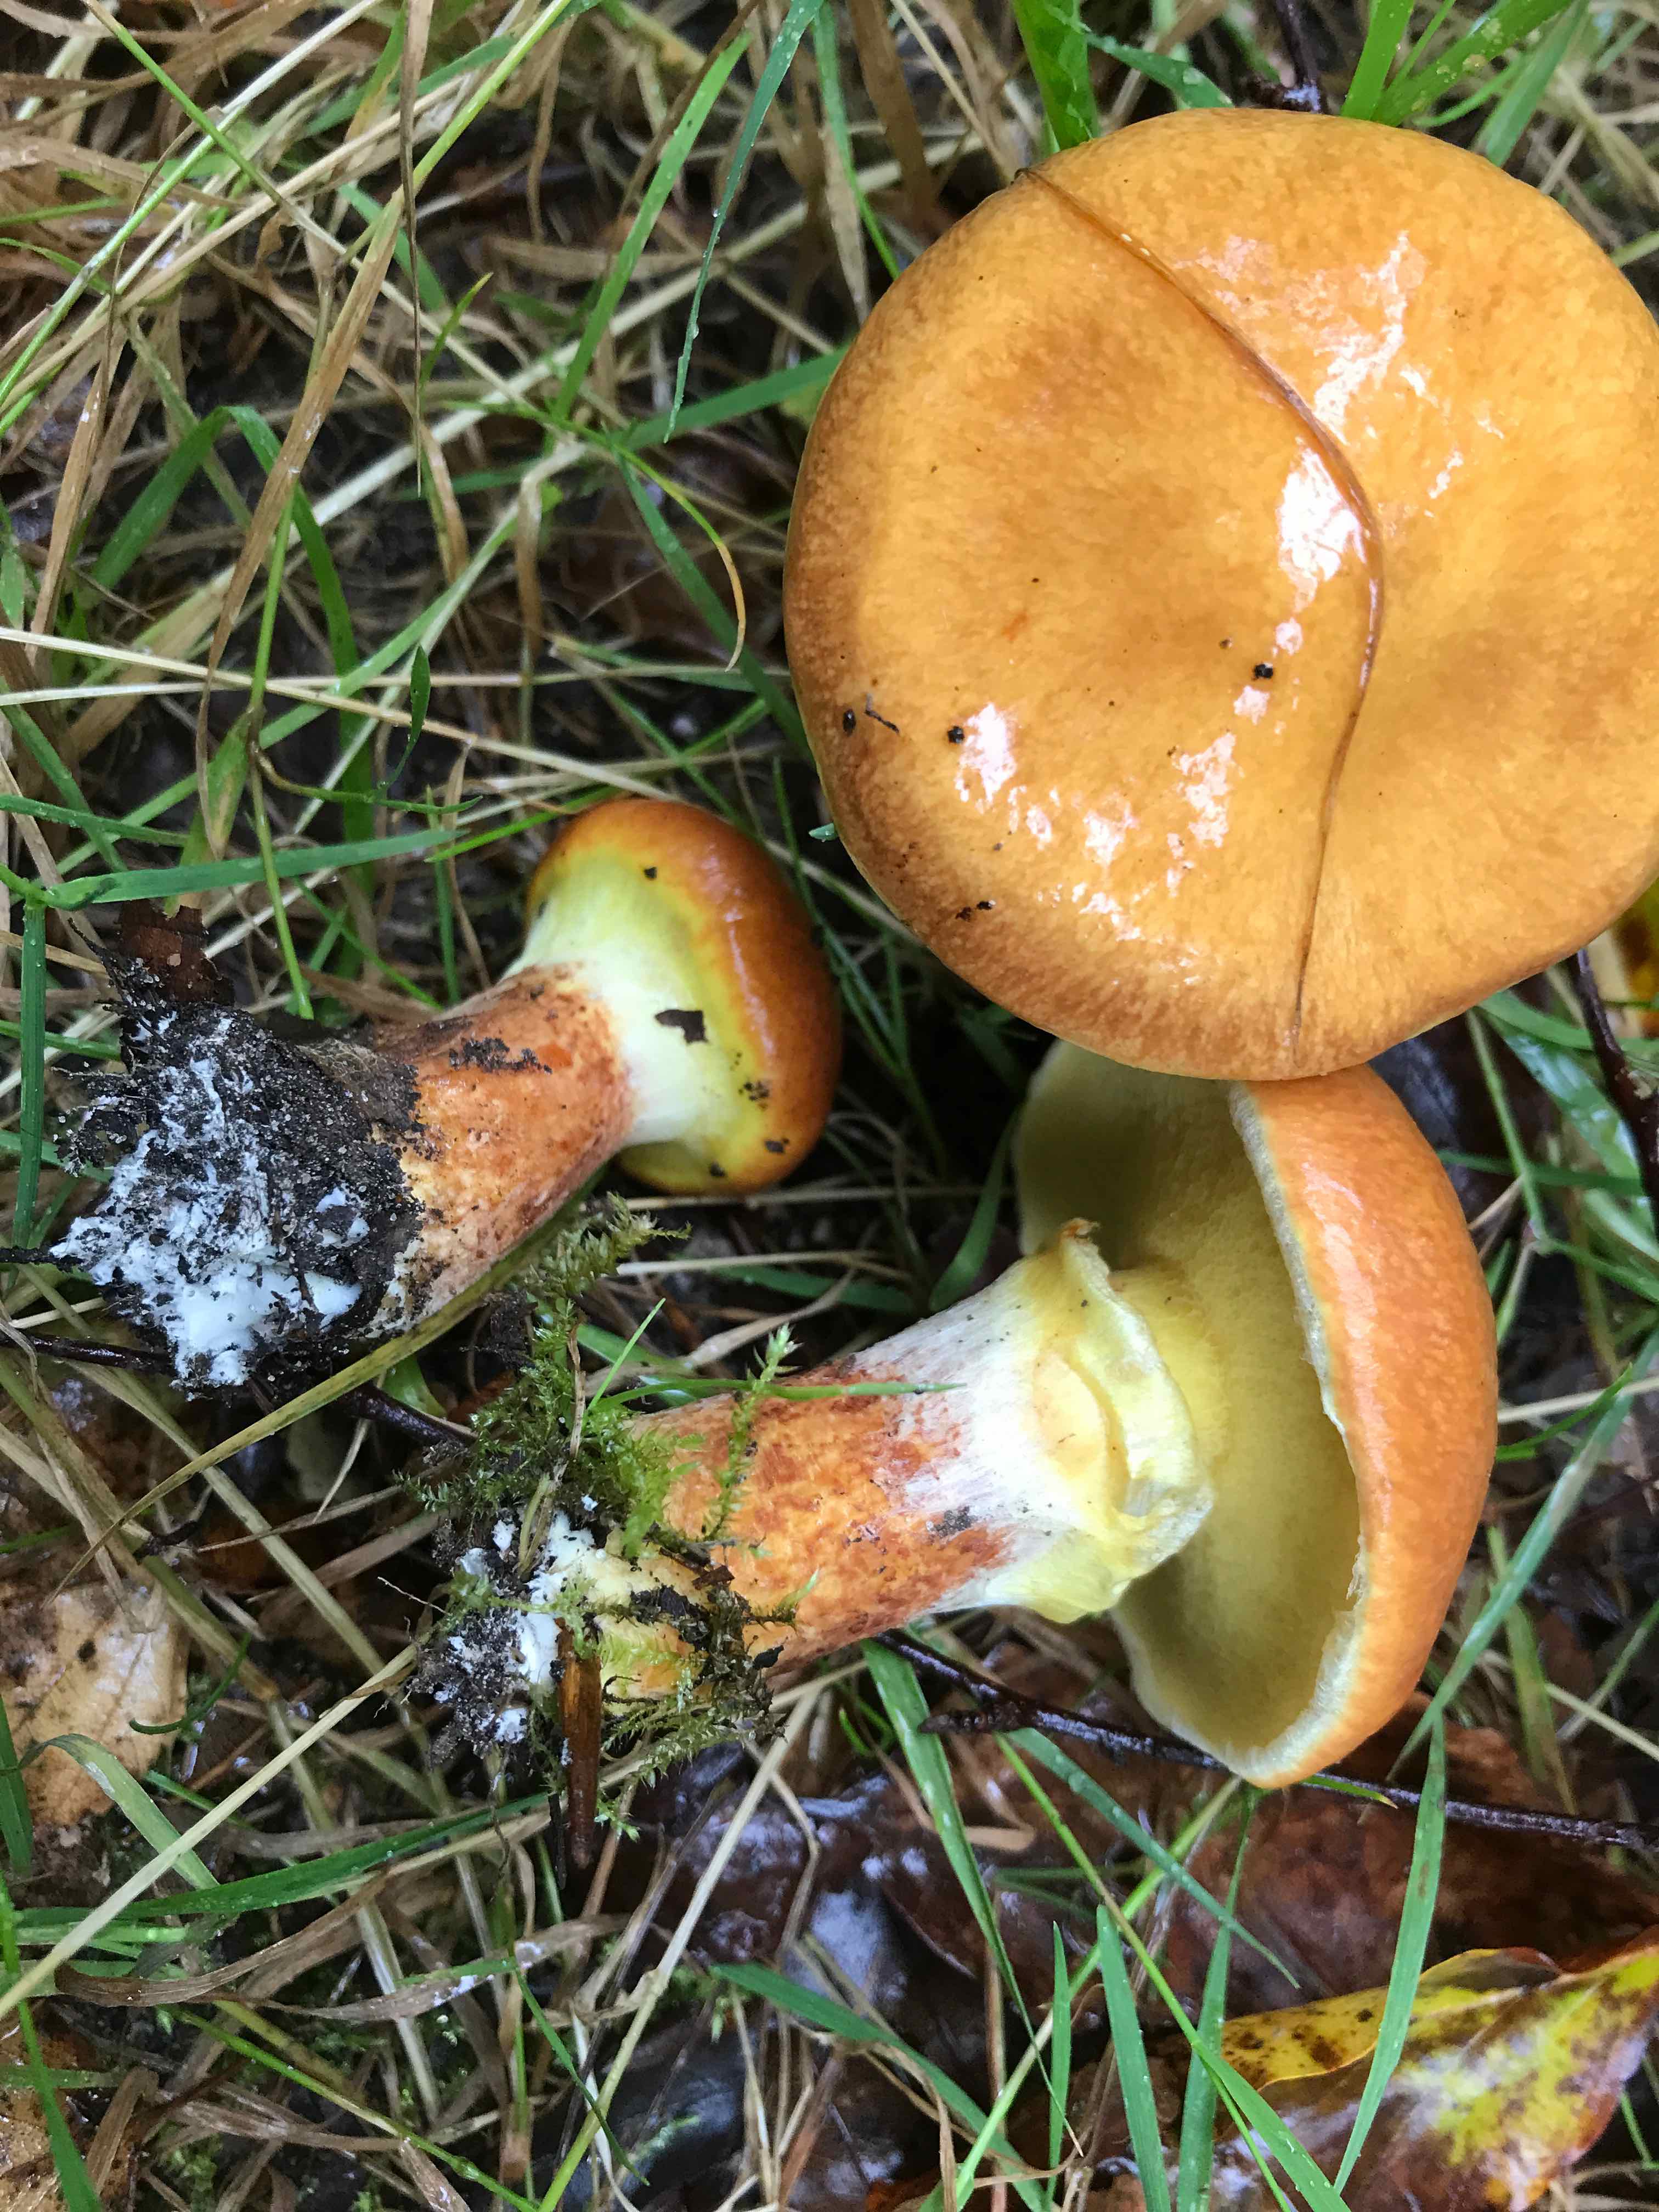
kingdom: Fungi
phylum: Basidiomycota
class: Agaricomycetes
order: Boletales
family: Suillaceae
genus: Suillus
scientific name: Suillus grevillei
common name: lærke-slimrørhat
